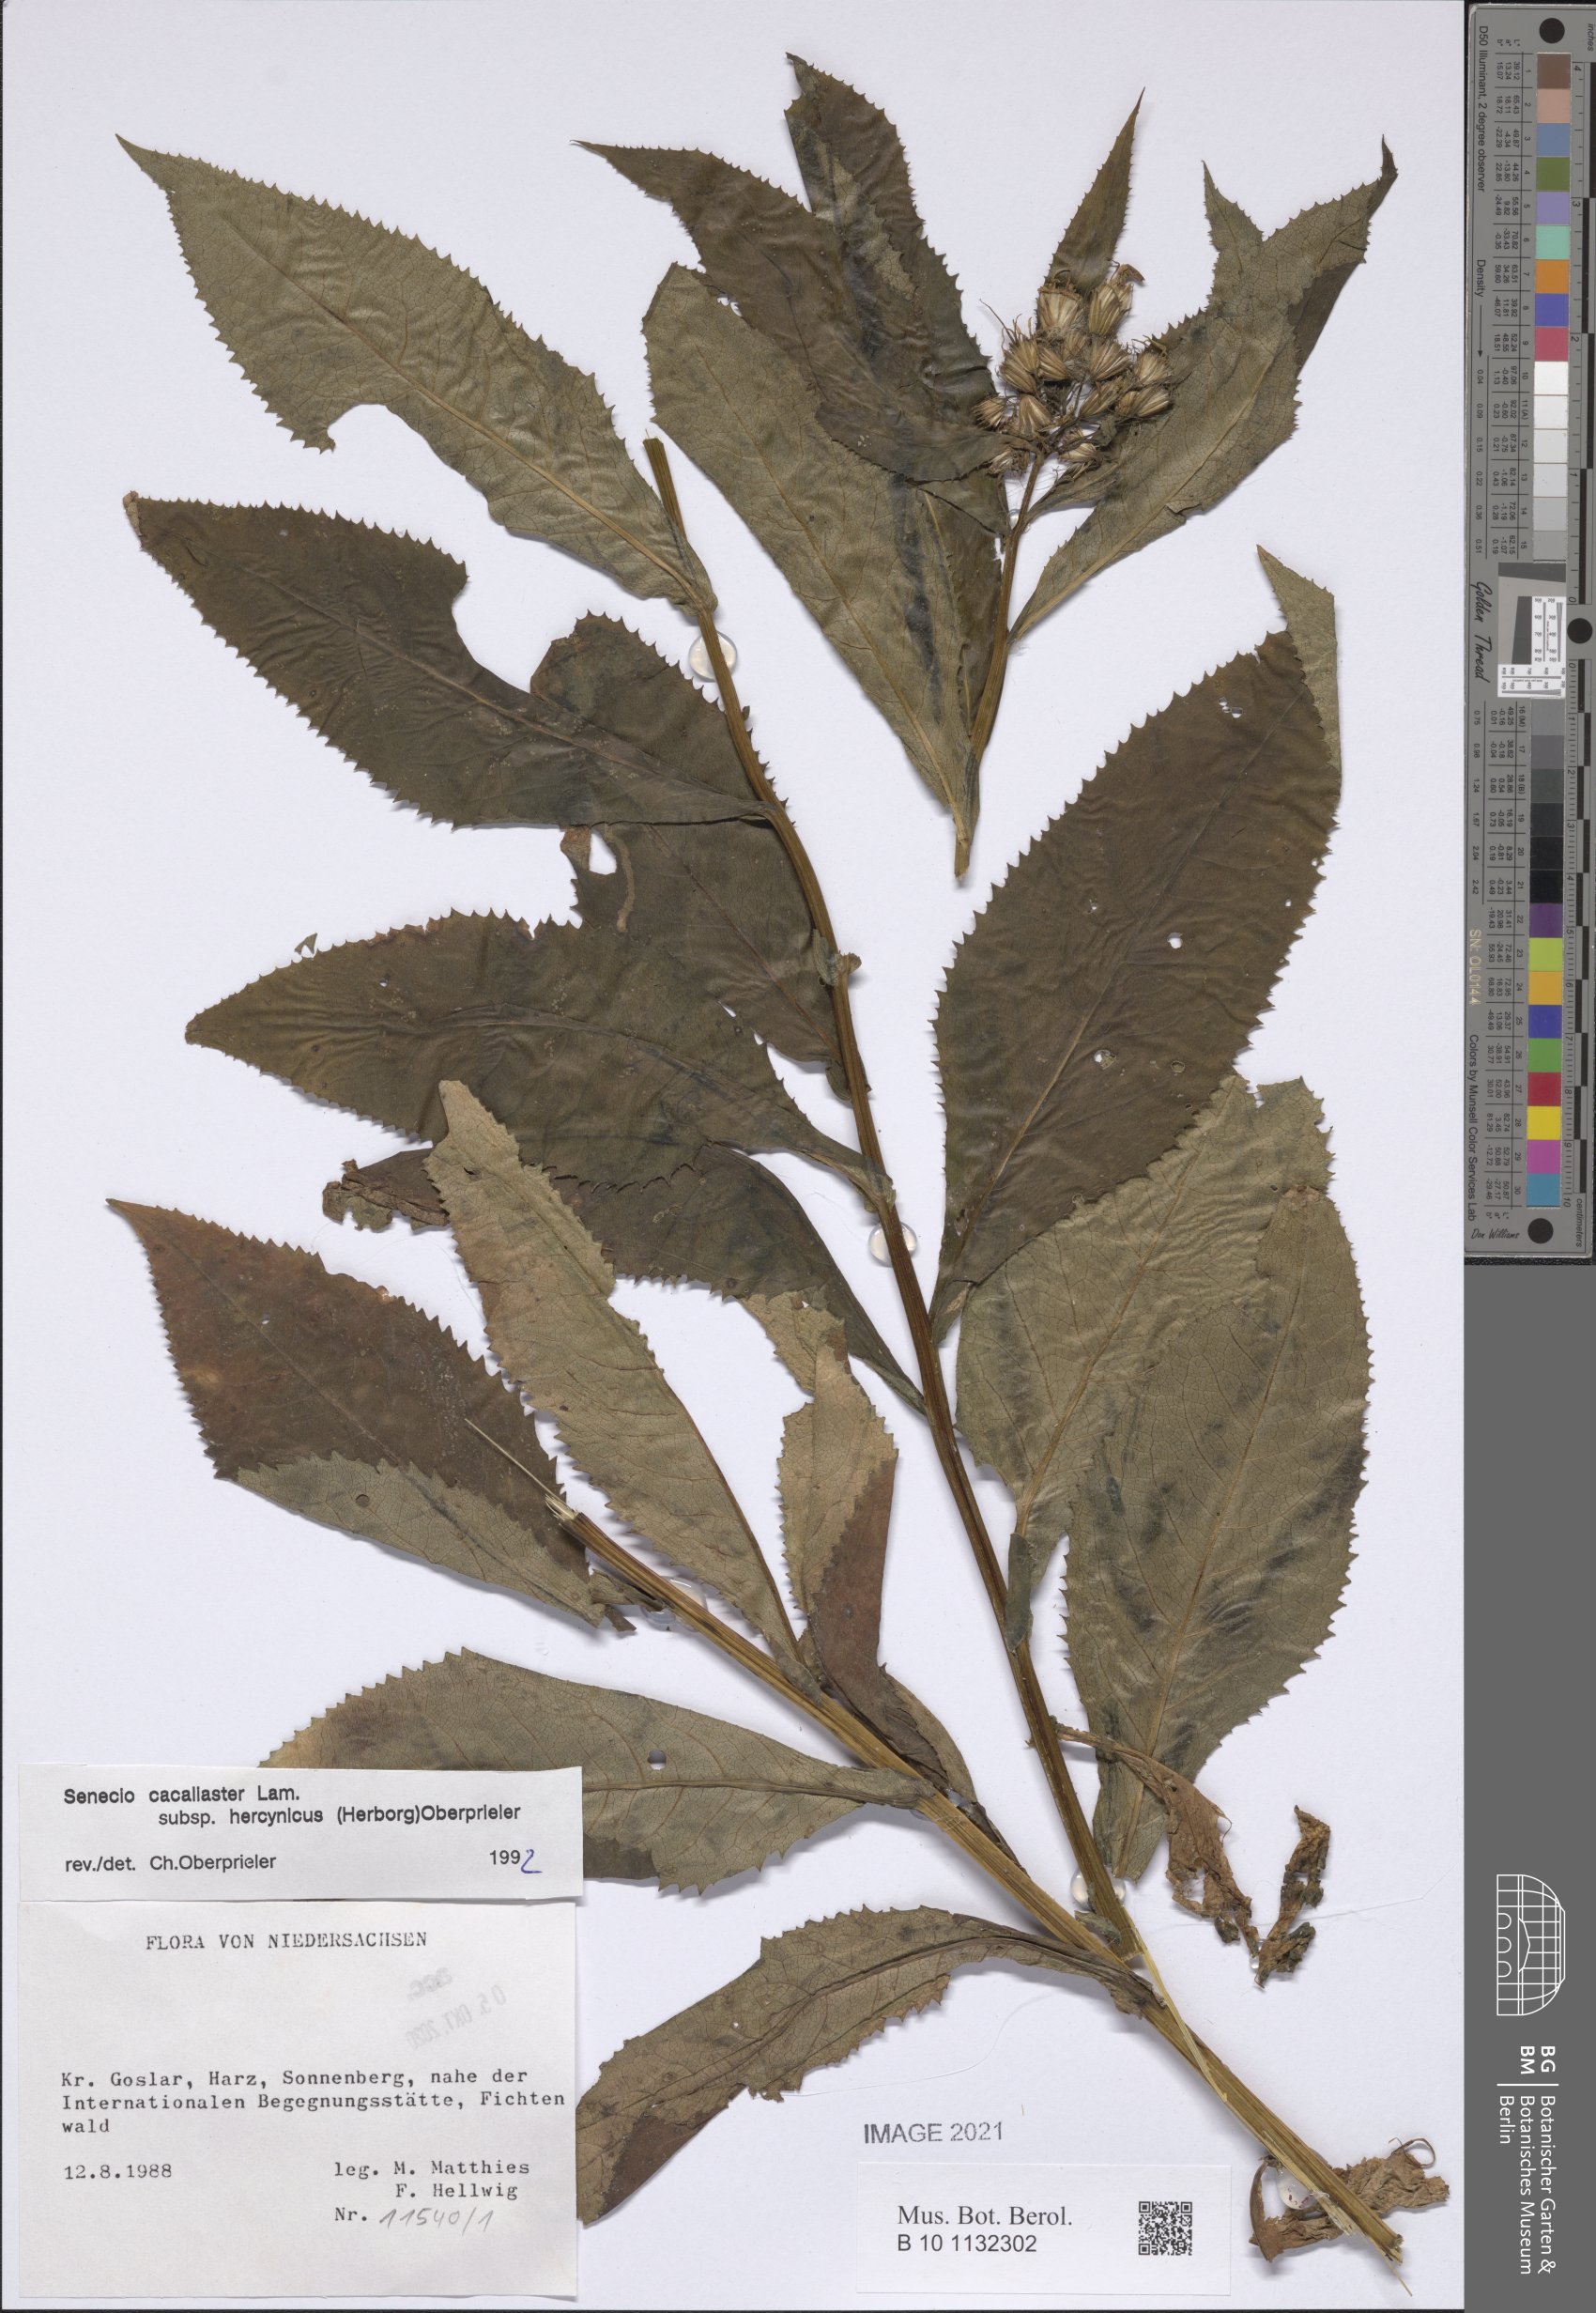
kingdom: Plantae
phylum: Tracheophyta
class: Magnoliopsida
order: Asterales
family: Asteraceae
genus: Senecio
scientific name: Senecio hercynicus
